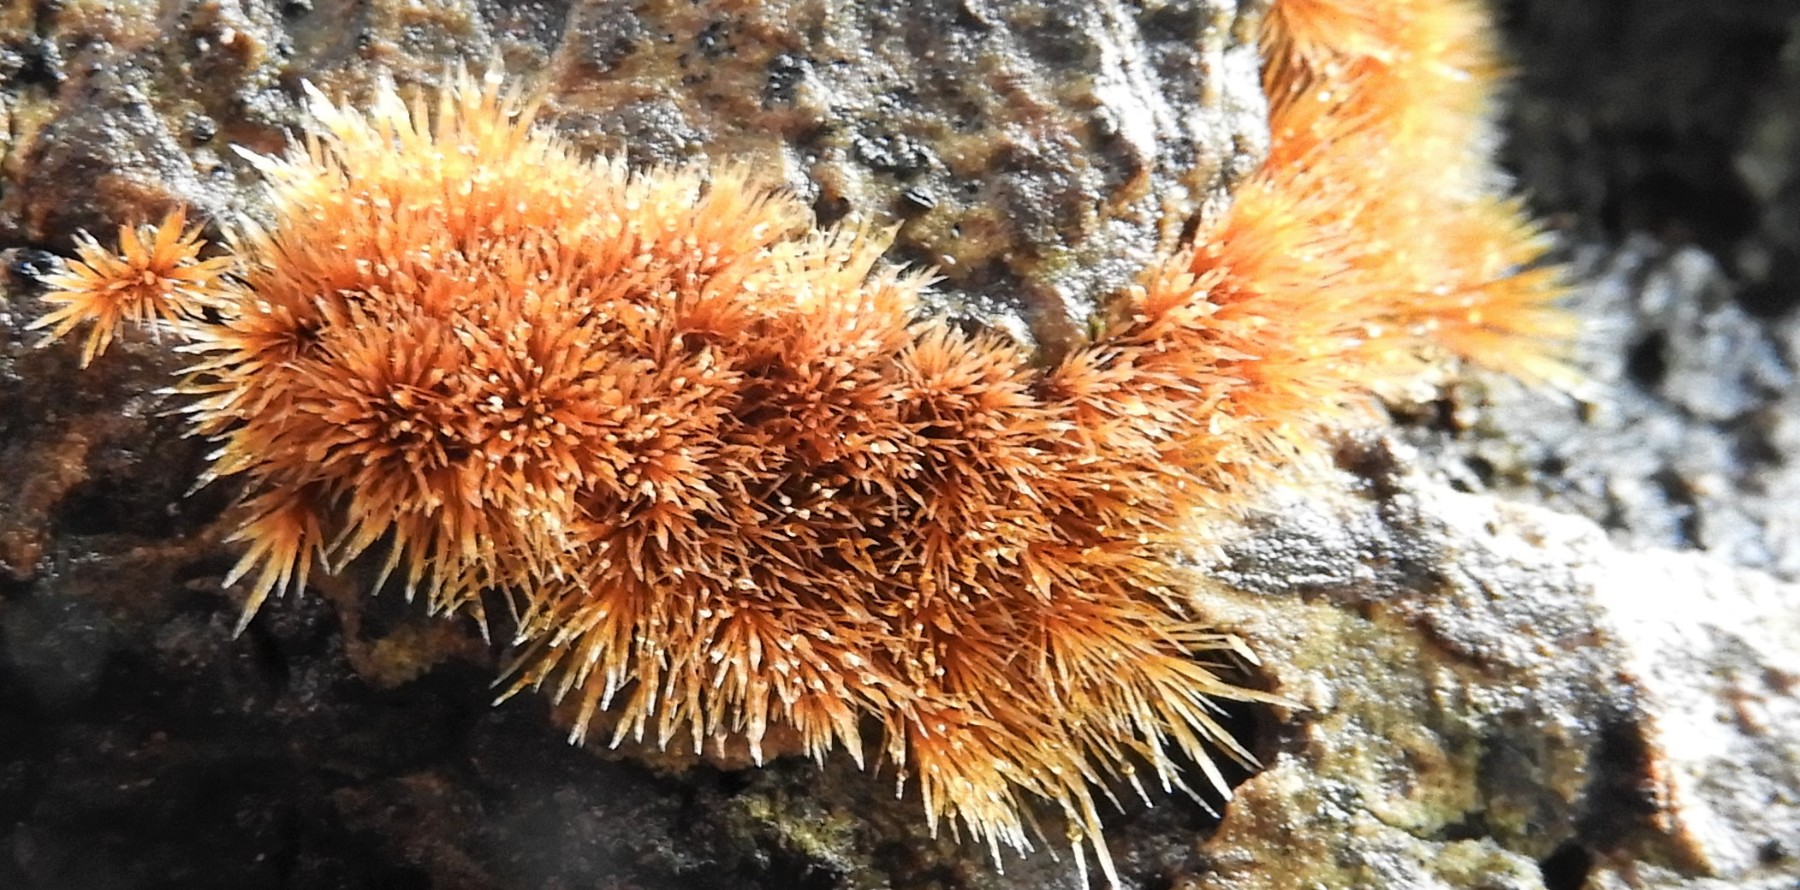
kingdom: Fungi
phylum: Basidiomycota
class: Agaricomycetes
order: Agaricales
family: Psathyrellaceae
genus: Ozonium
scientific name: Ozonium
